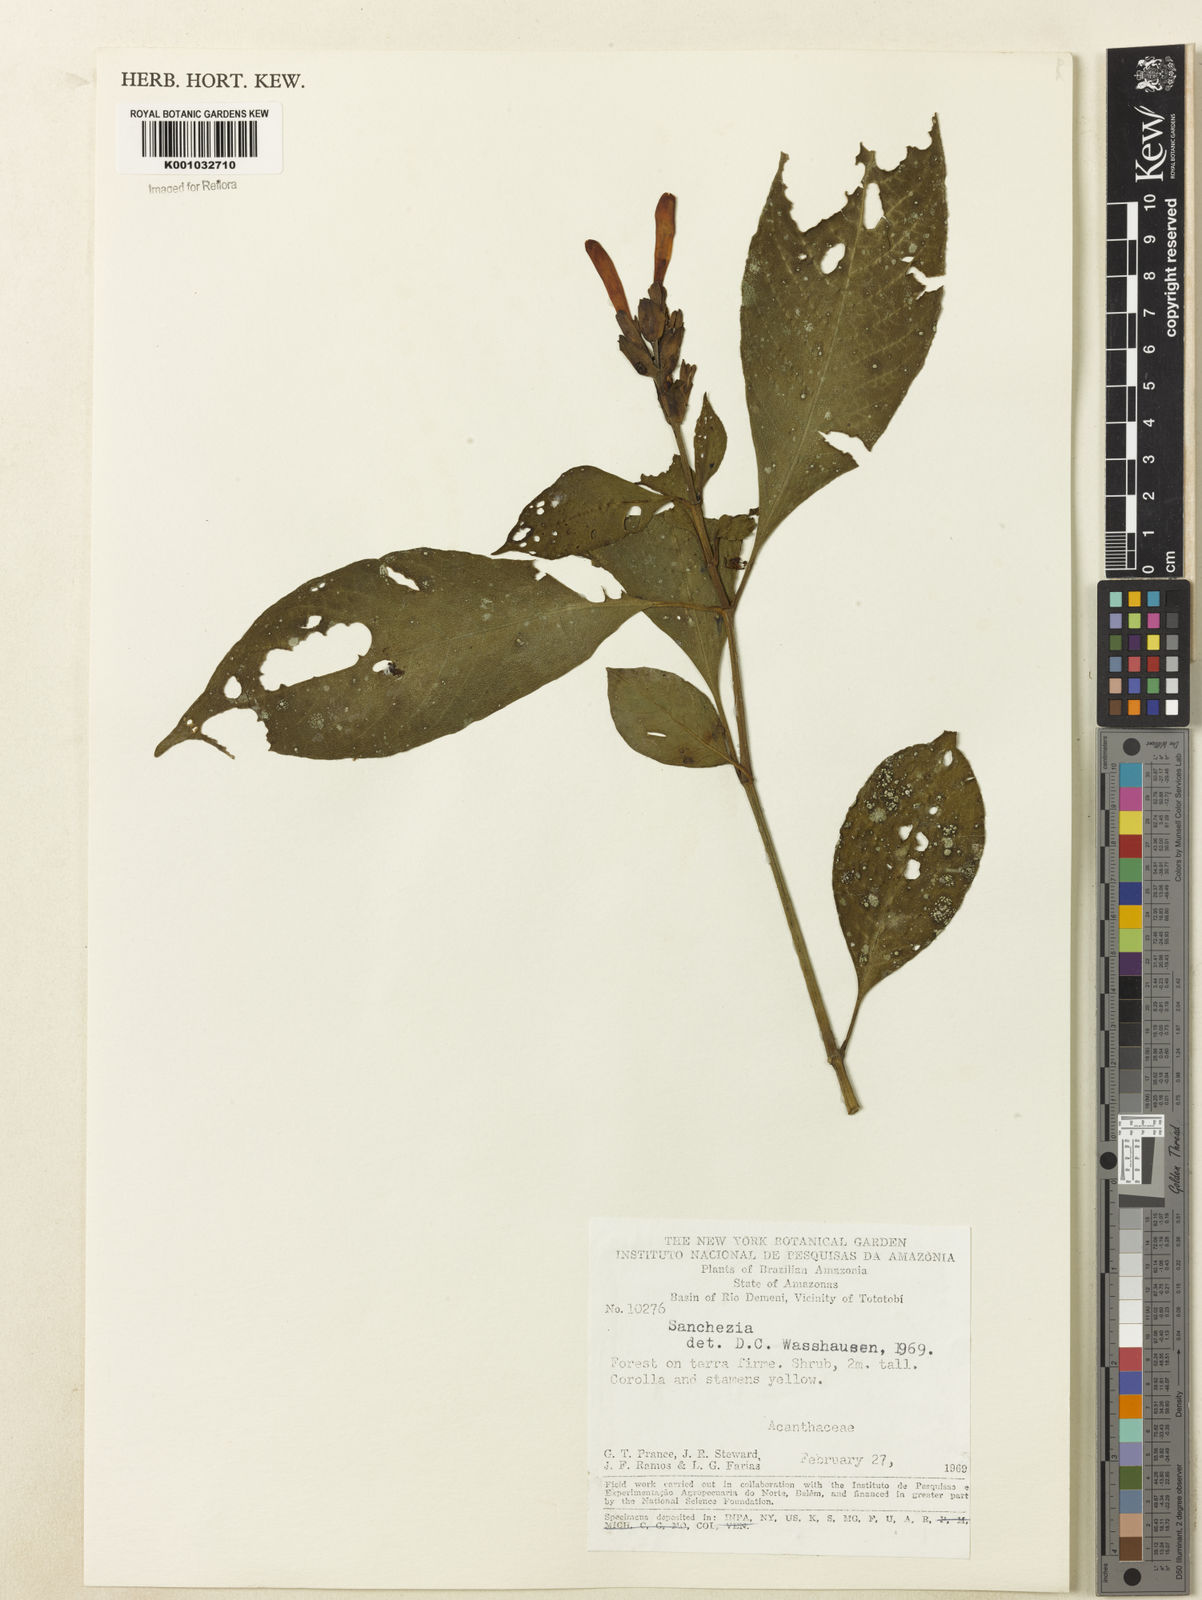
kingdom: Plantae
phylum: Tracheophyta
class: Magnoliopsida
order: Lamiales
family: Acanthaceae
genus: Sanchezia
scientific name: Sanchezia
